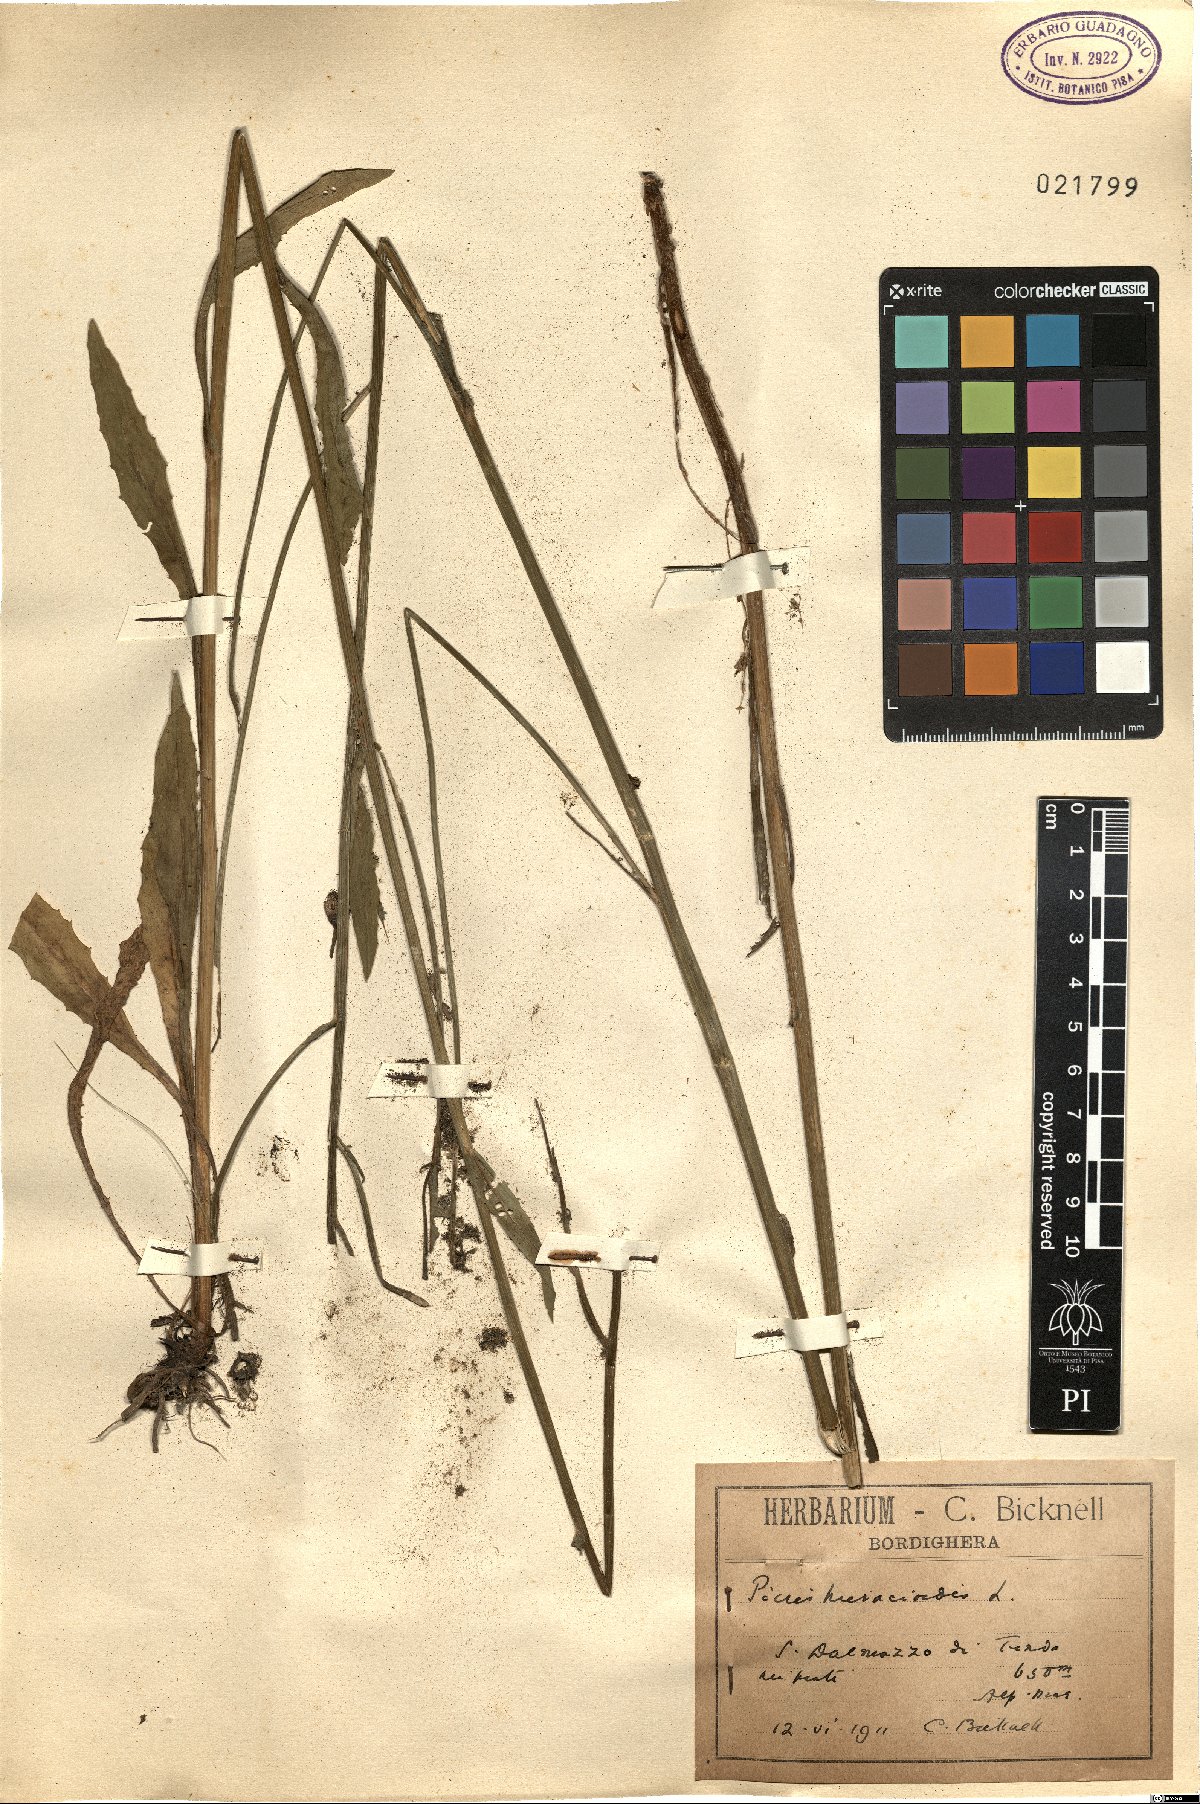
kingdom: Plantae
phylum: Tracheophyta
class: Magnoliopsida
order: Asterales
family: Asteraceae
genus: Picris
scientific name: Picris hieracioides
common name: Hawkweed oxtongue
